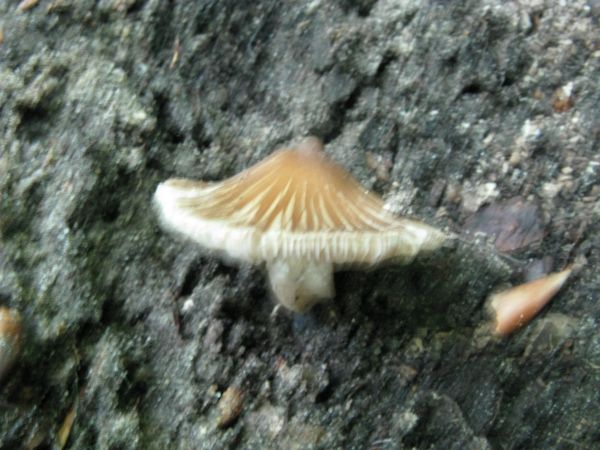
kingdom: Fungi
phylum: Basidiomycota
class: Agaricomycetes
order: Agaricales
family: Inocybaceae
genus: Inocybe
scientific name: Inocybe asterospora
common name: stjernesporet trævlhat
